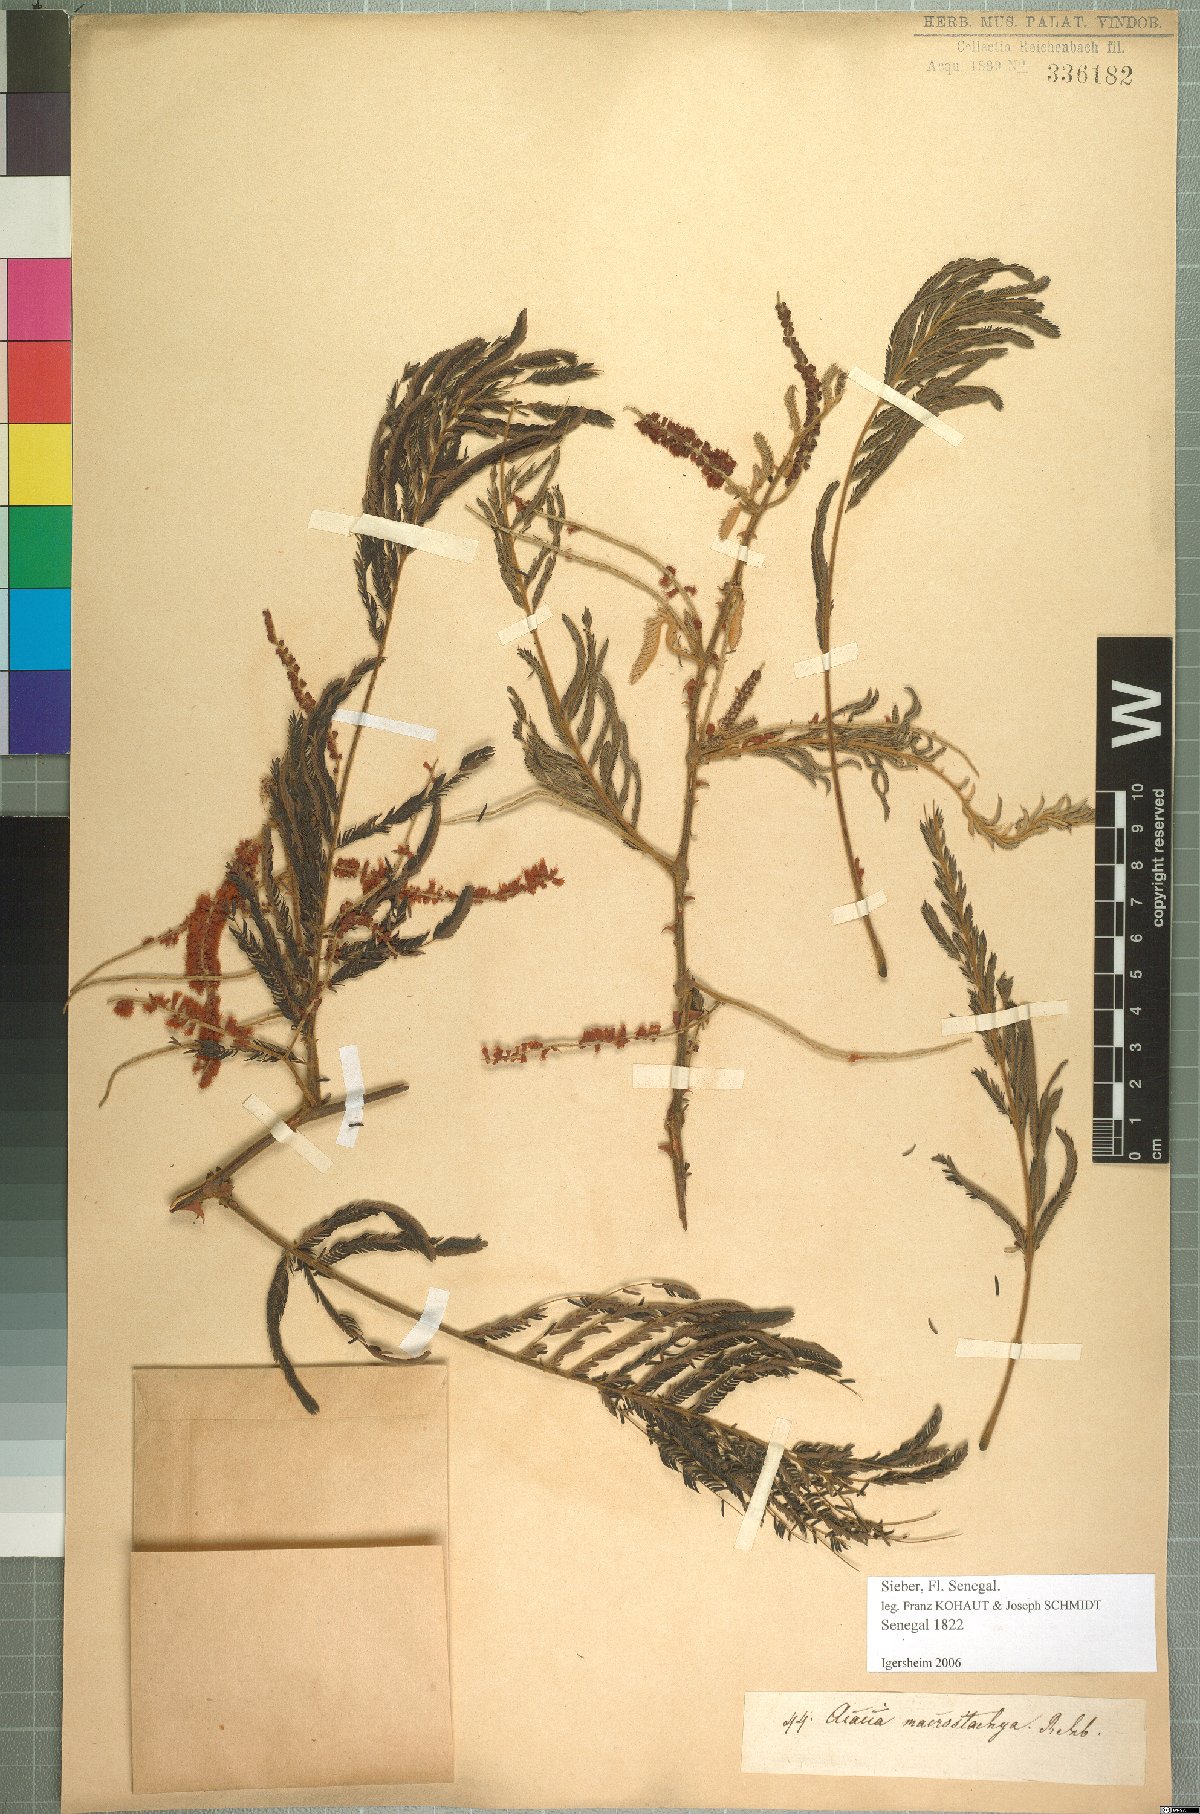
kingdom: Plantae
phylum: Tracheophyta
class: Magnoliopsida
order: Fabales
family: Fabaceae
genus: Senegalia
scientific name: Senegalia macrostachya
